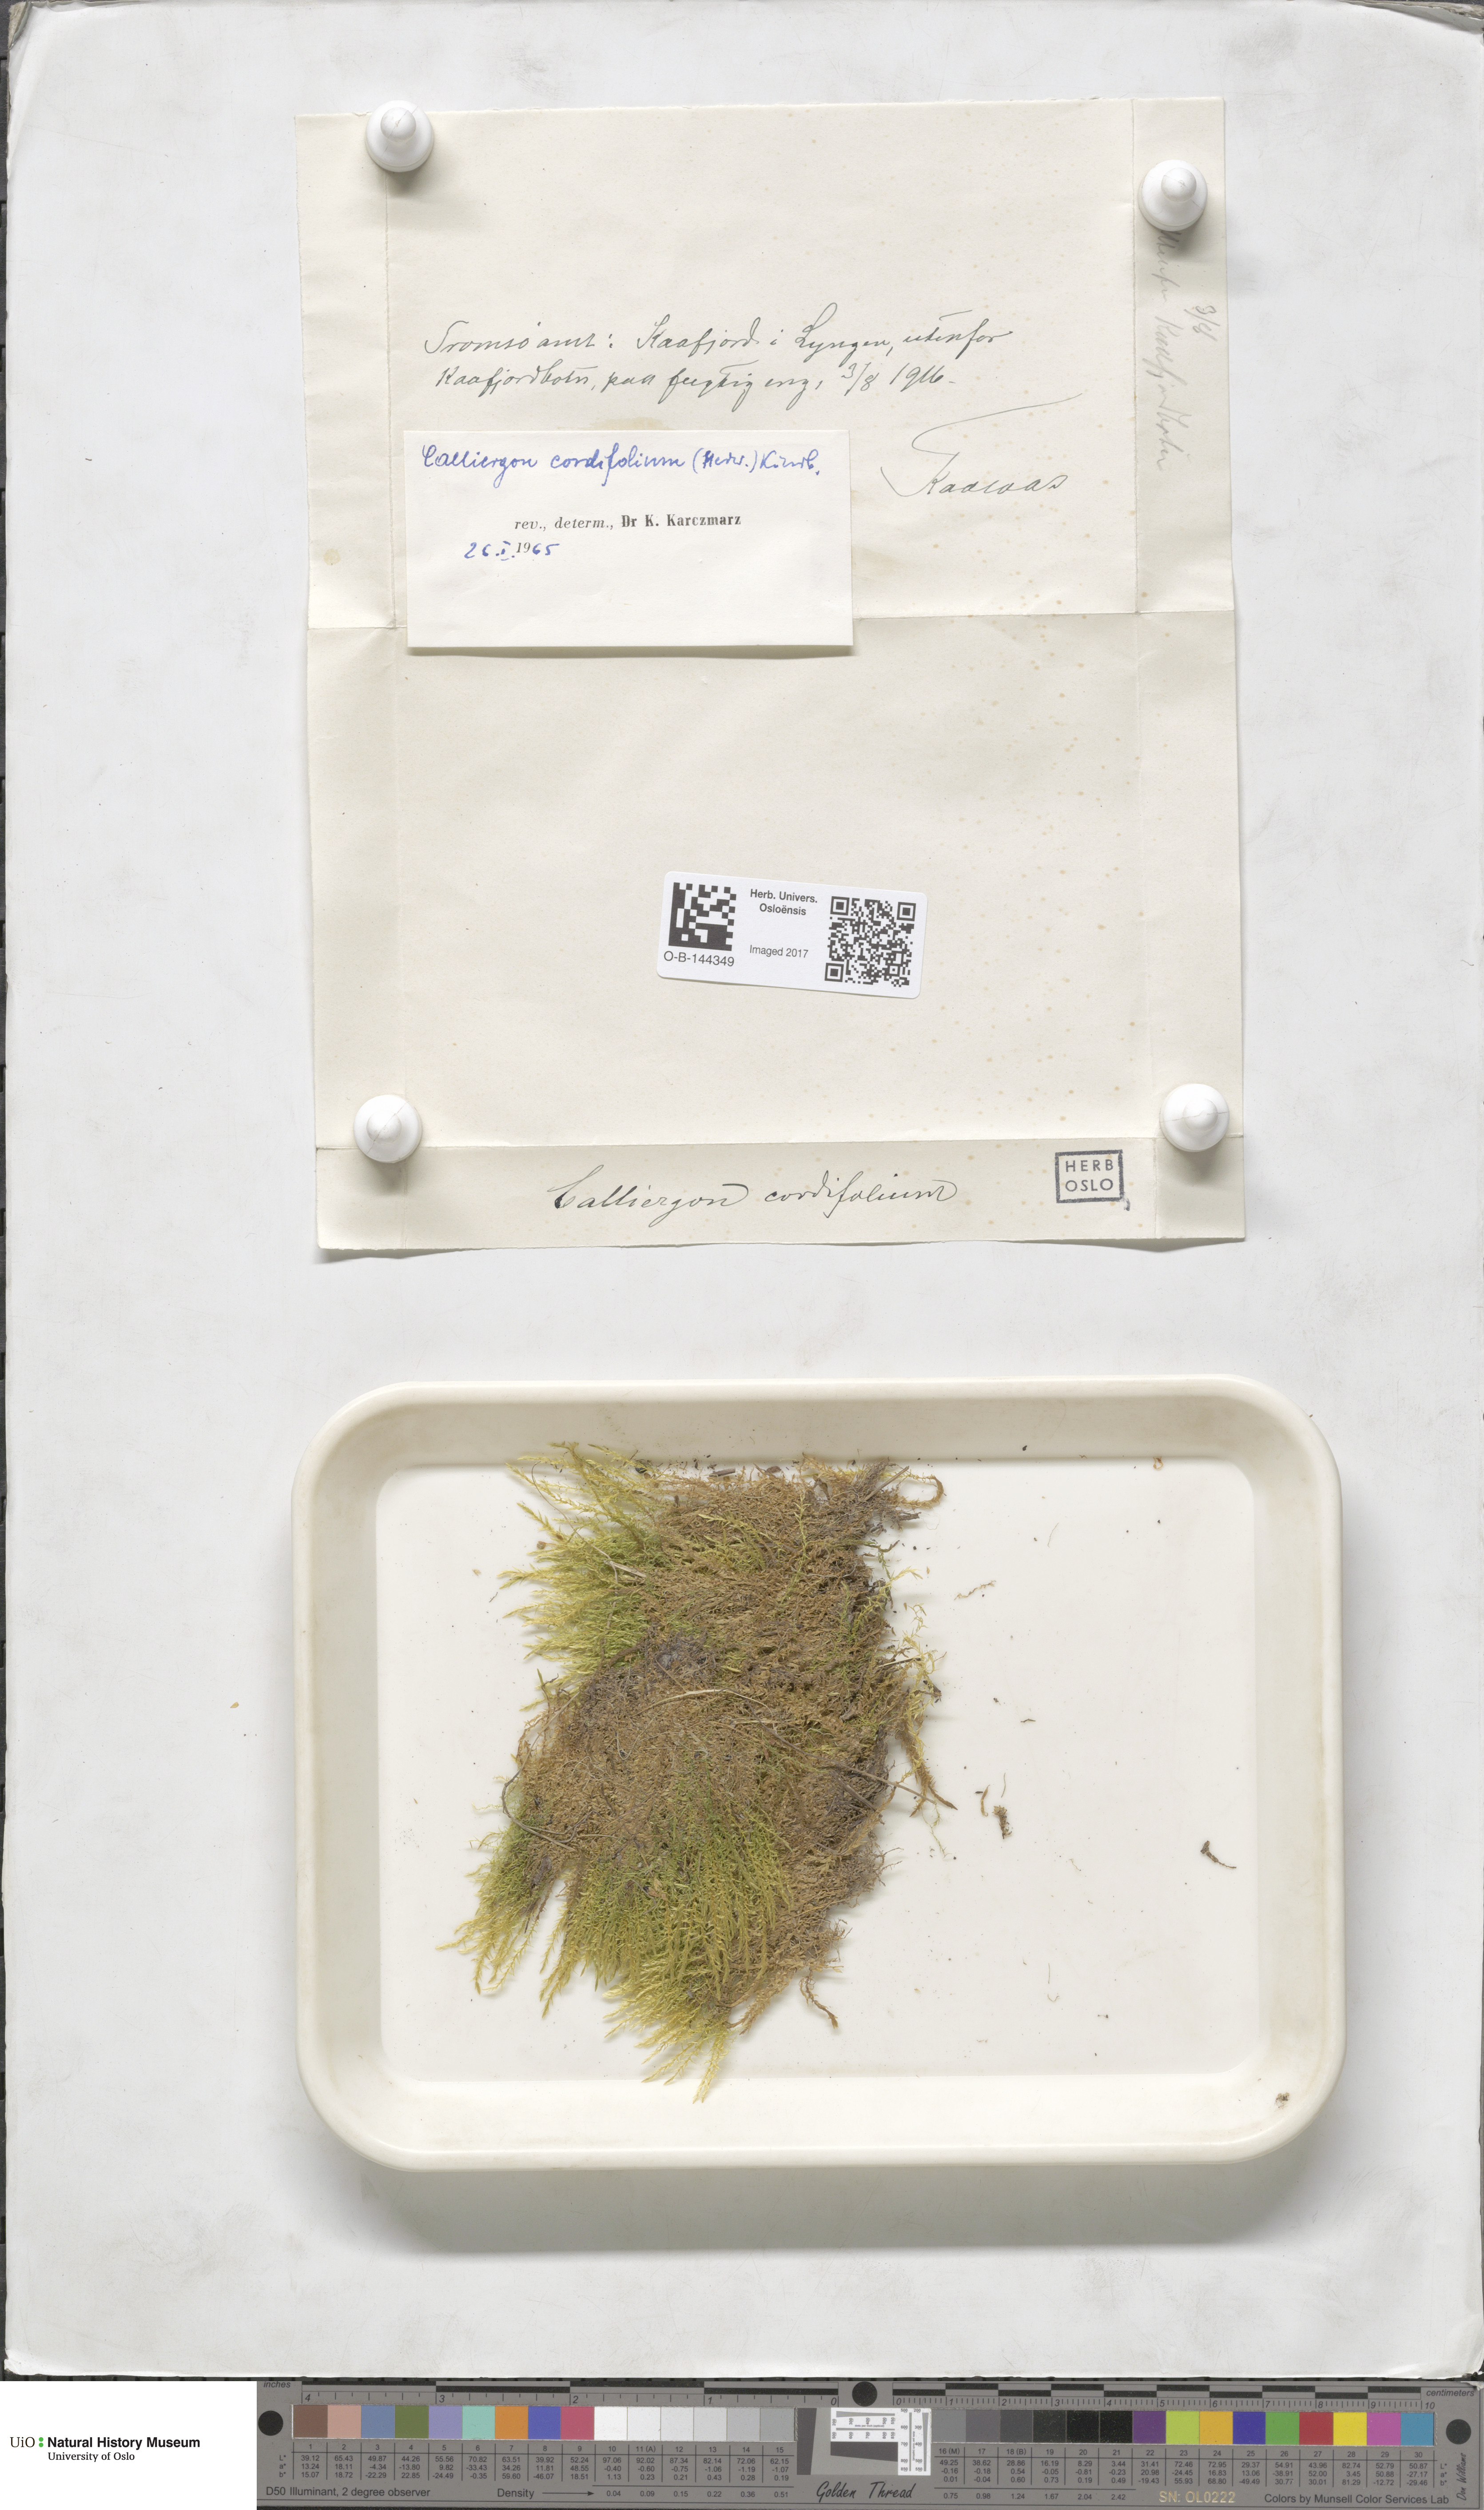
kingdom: Plantae
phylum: Bryophyta
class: Bryopsida
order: Hypnales
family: Calliergonaceae
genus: Calliergon
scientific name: Calliergon cordifolium
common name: Heart-leaved spear moss
